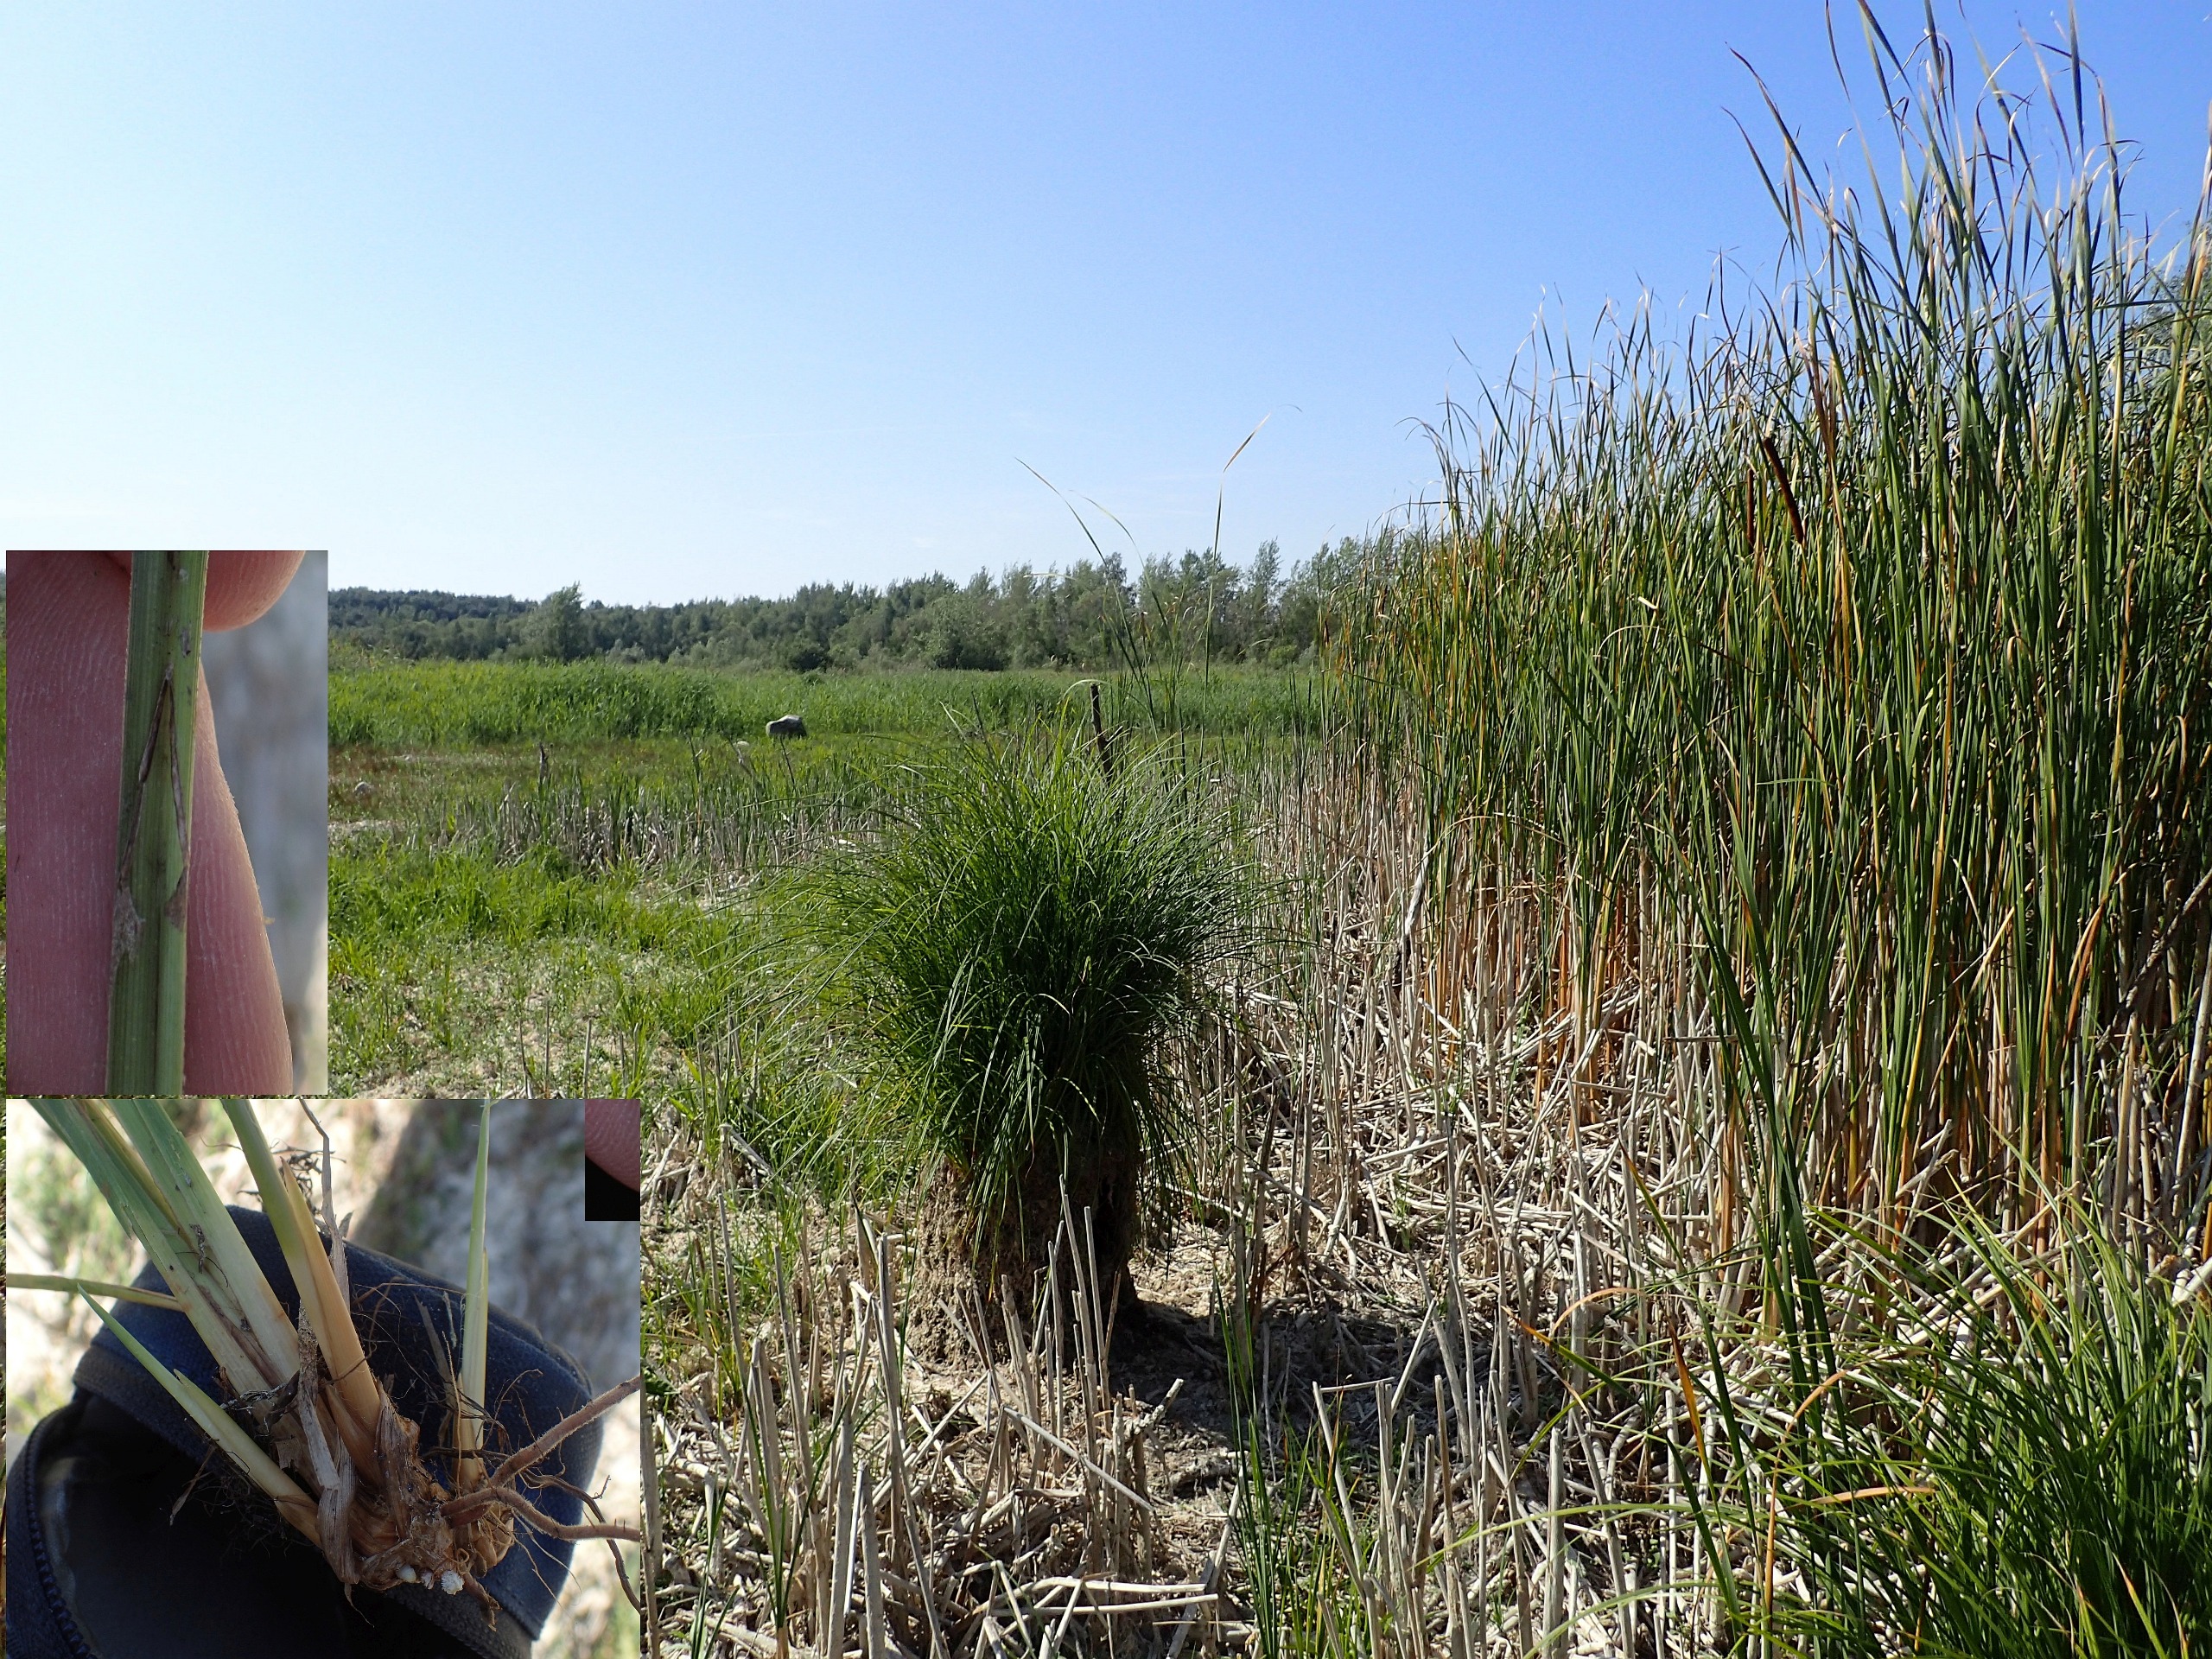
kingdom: Plantae
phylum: Tracheophyta
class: Liliopsida
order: Poales
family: Cyperaceae
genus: Carex
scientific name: Carex elata
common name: Stiv star
